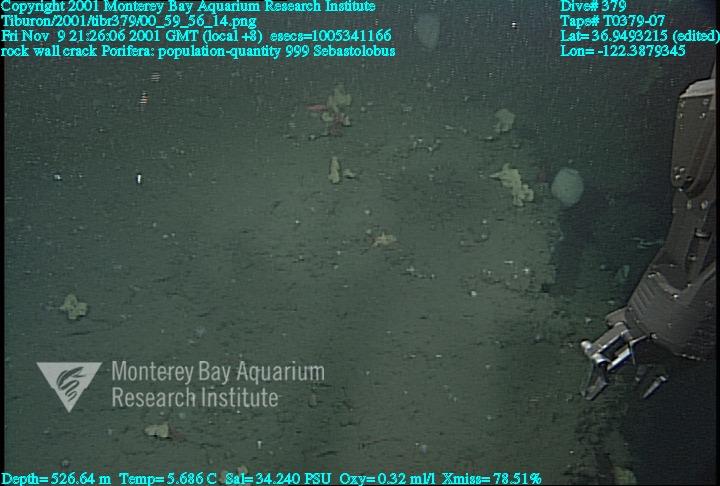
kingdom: Animalia
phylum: Porifera
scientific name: Porifera
